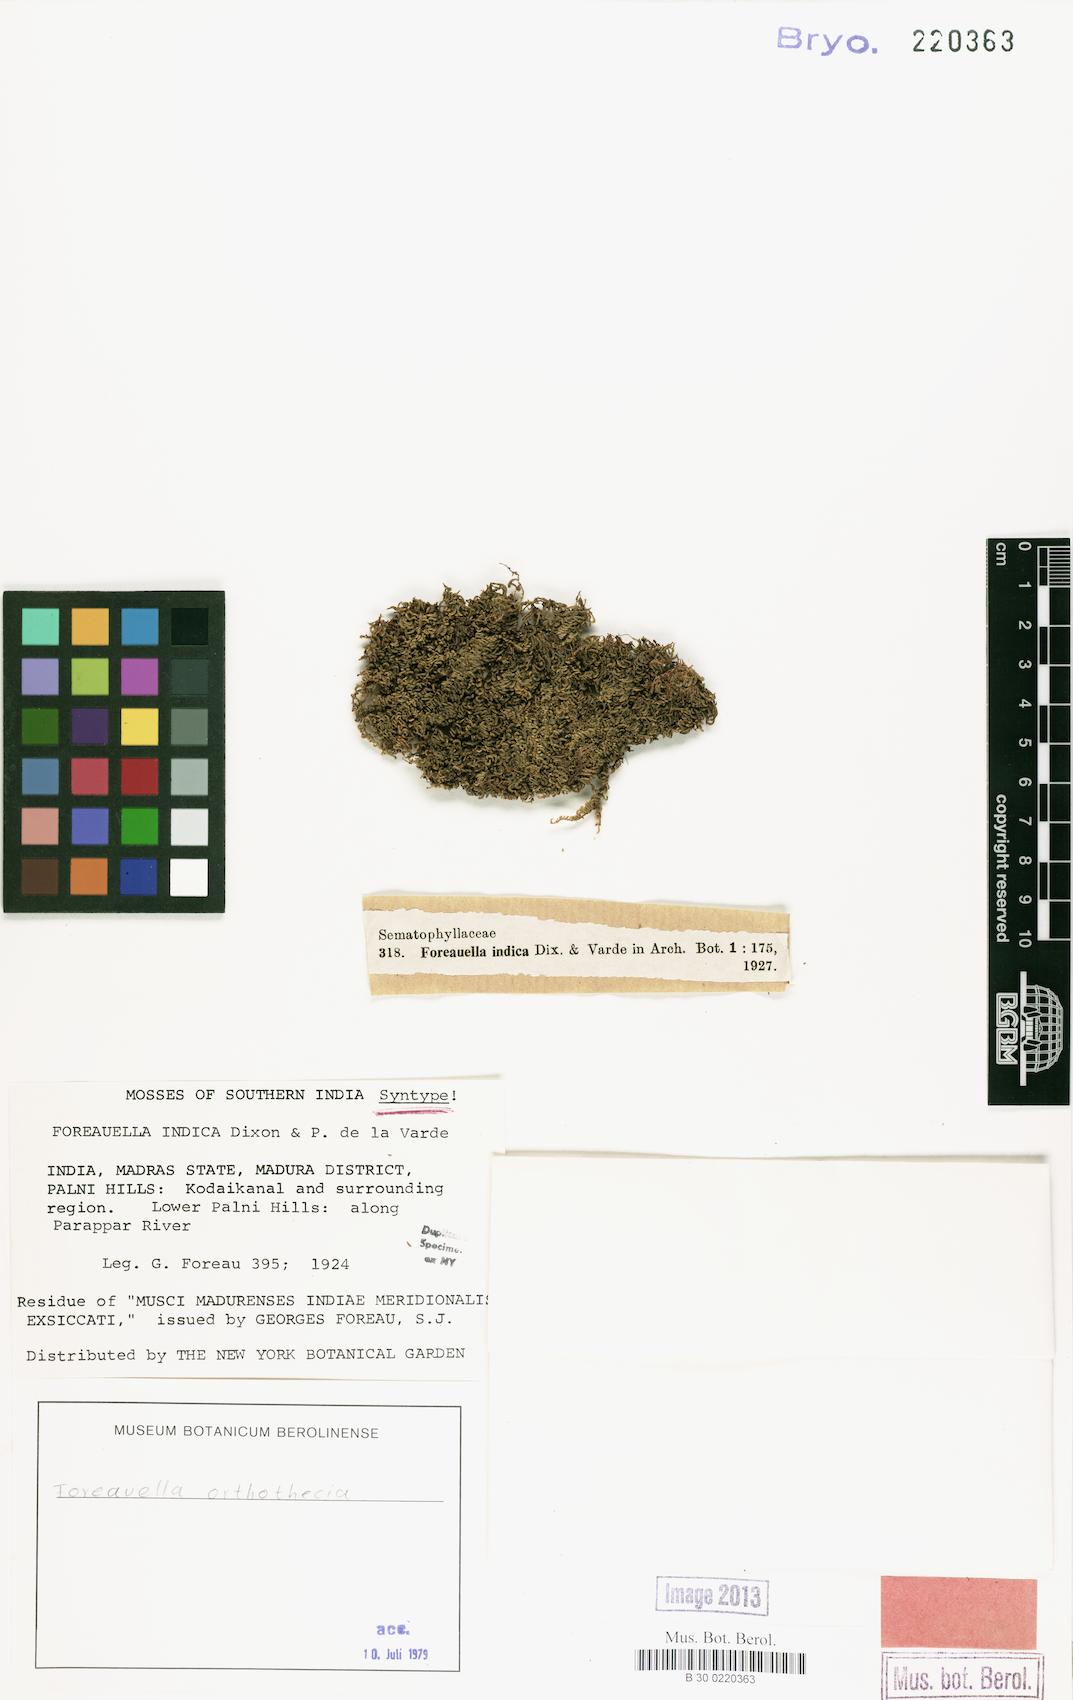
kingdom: Plantae
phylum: Bryophyta
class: Bryopsida
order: Hypnales
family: Hypnaceae
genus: Foreauella
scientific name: Foreauella orthothecia
